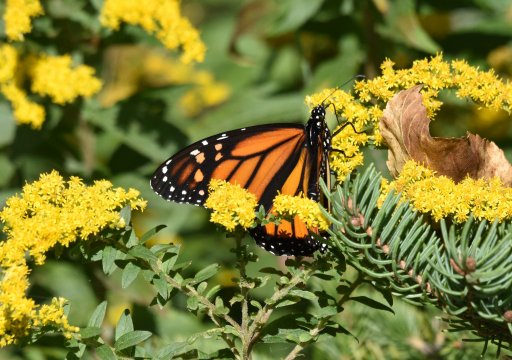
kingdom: Animalia
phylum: Arthropoda
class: Insecta
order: Lepidoptera
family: Nymphalidae
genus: Danaus
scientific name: Danaus plexippus
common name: Monarch
